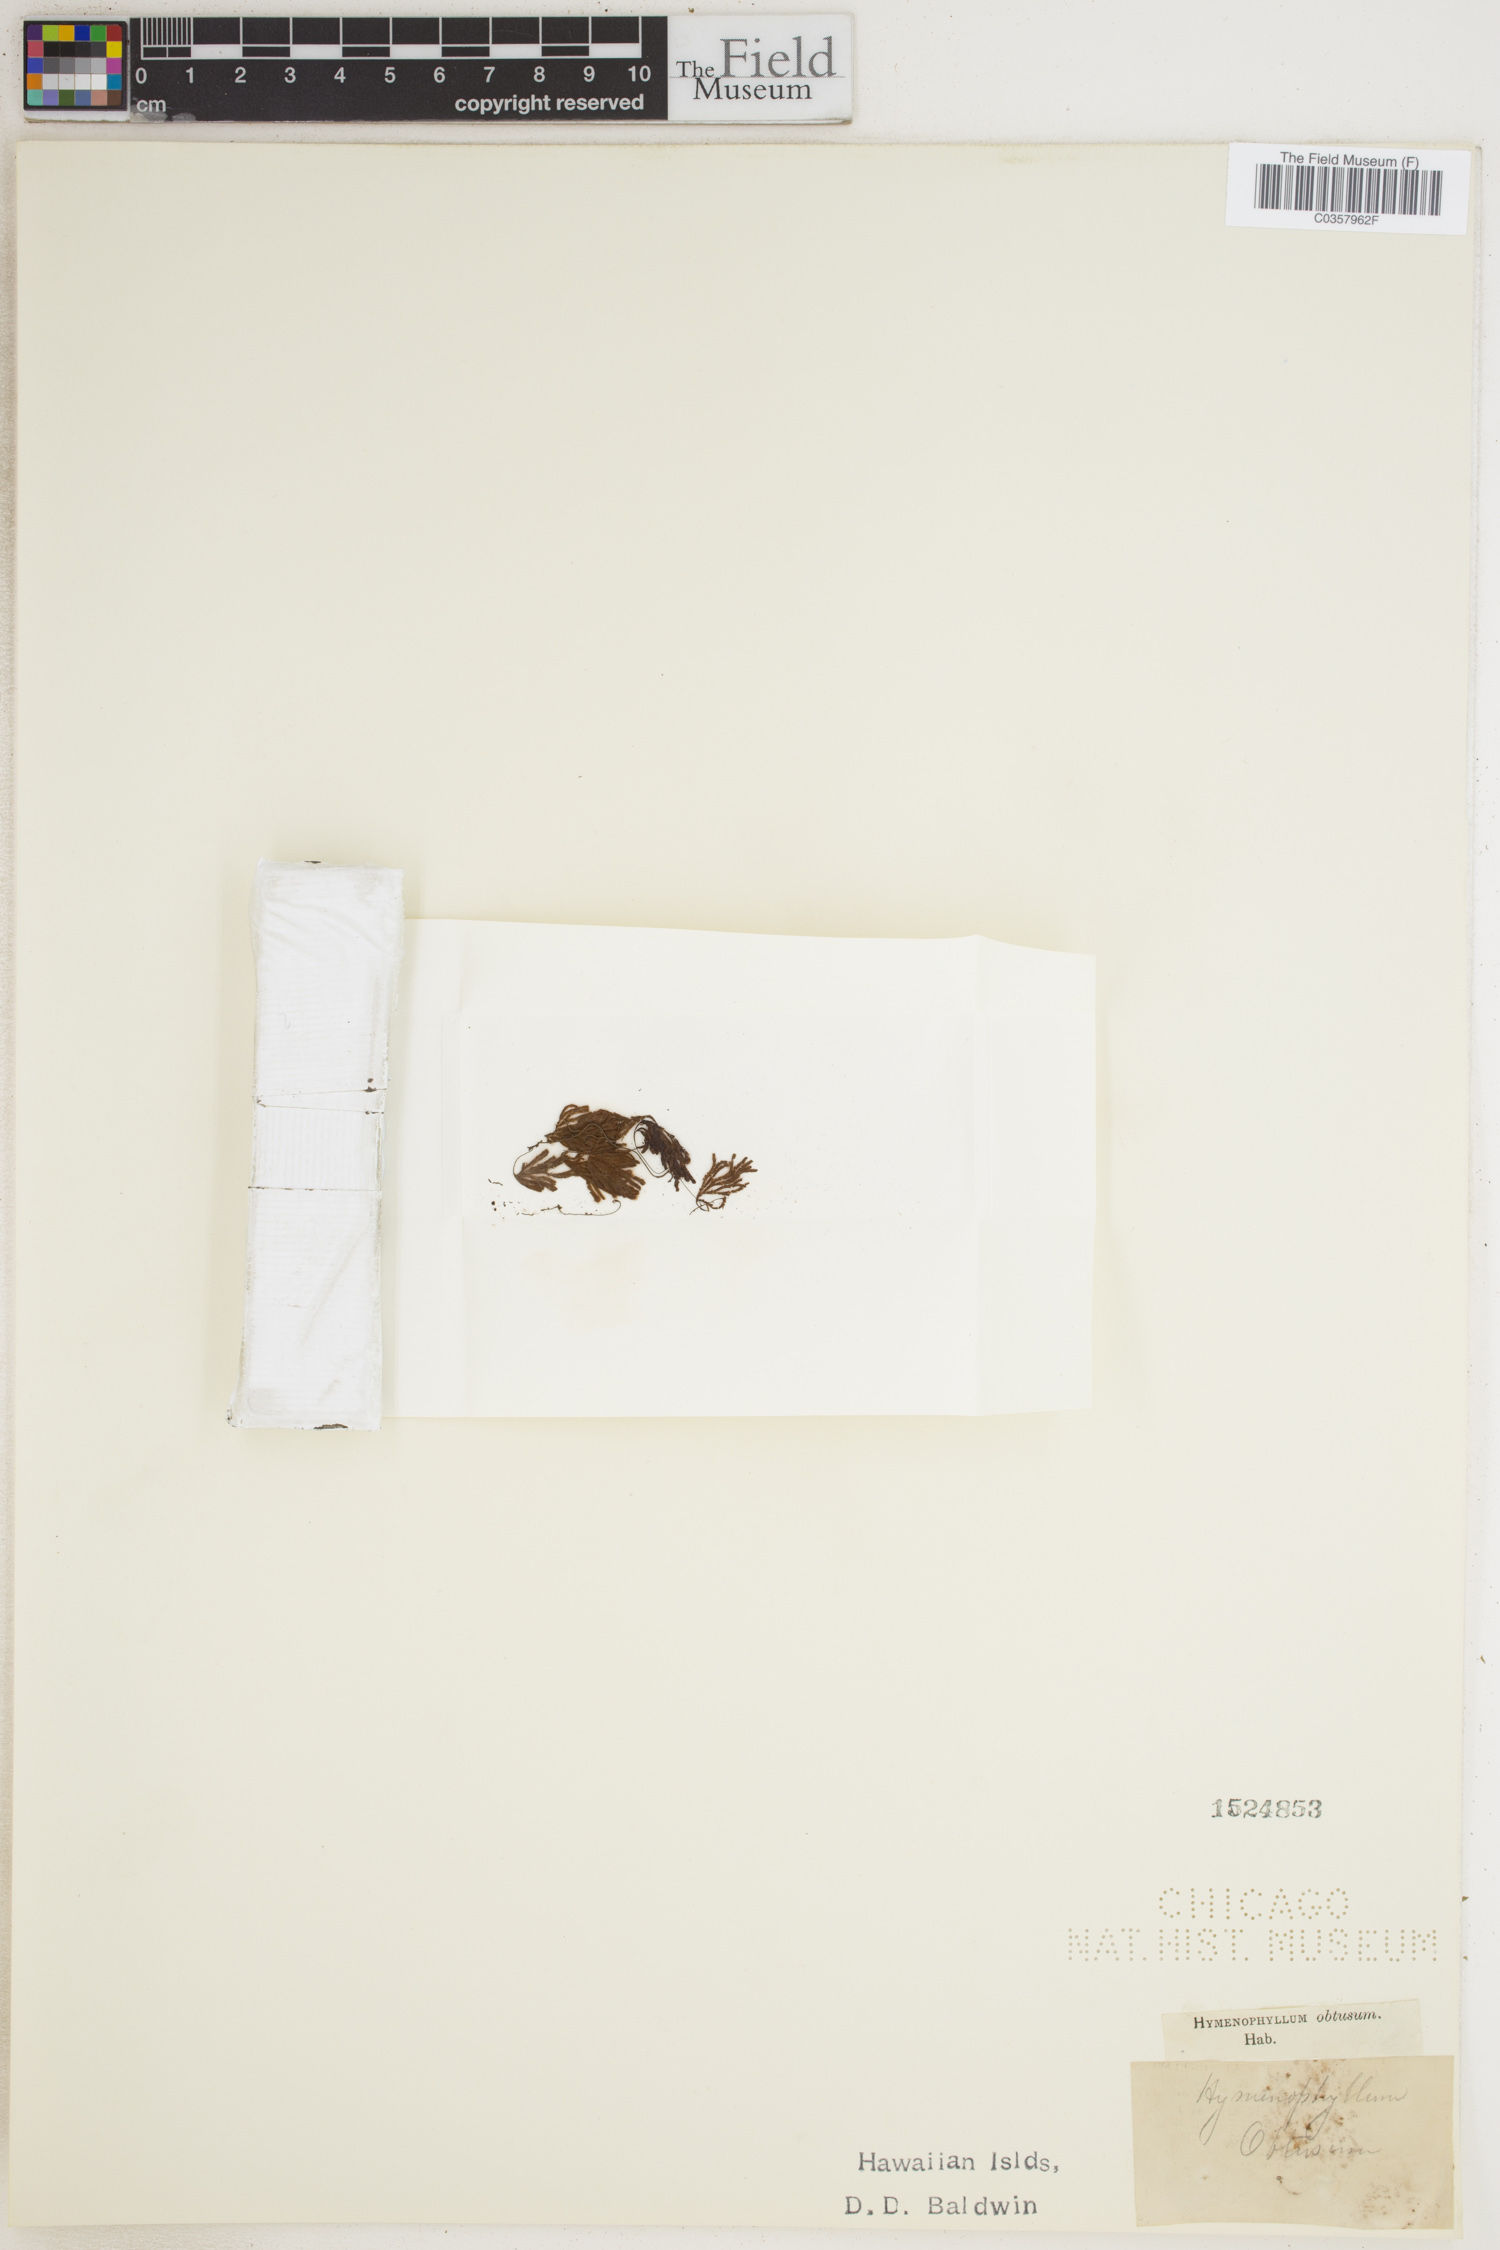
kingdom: Plantae
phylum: Tracheophyta
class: Polypodiopsida
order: Hymenophyllales
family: Hymenophyllaceae
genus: Hymenophyllum
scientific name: Hymenophyllum obtusum
